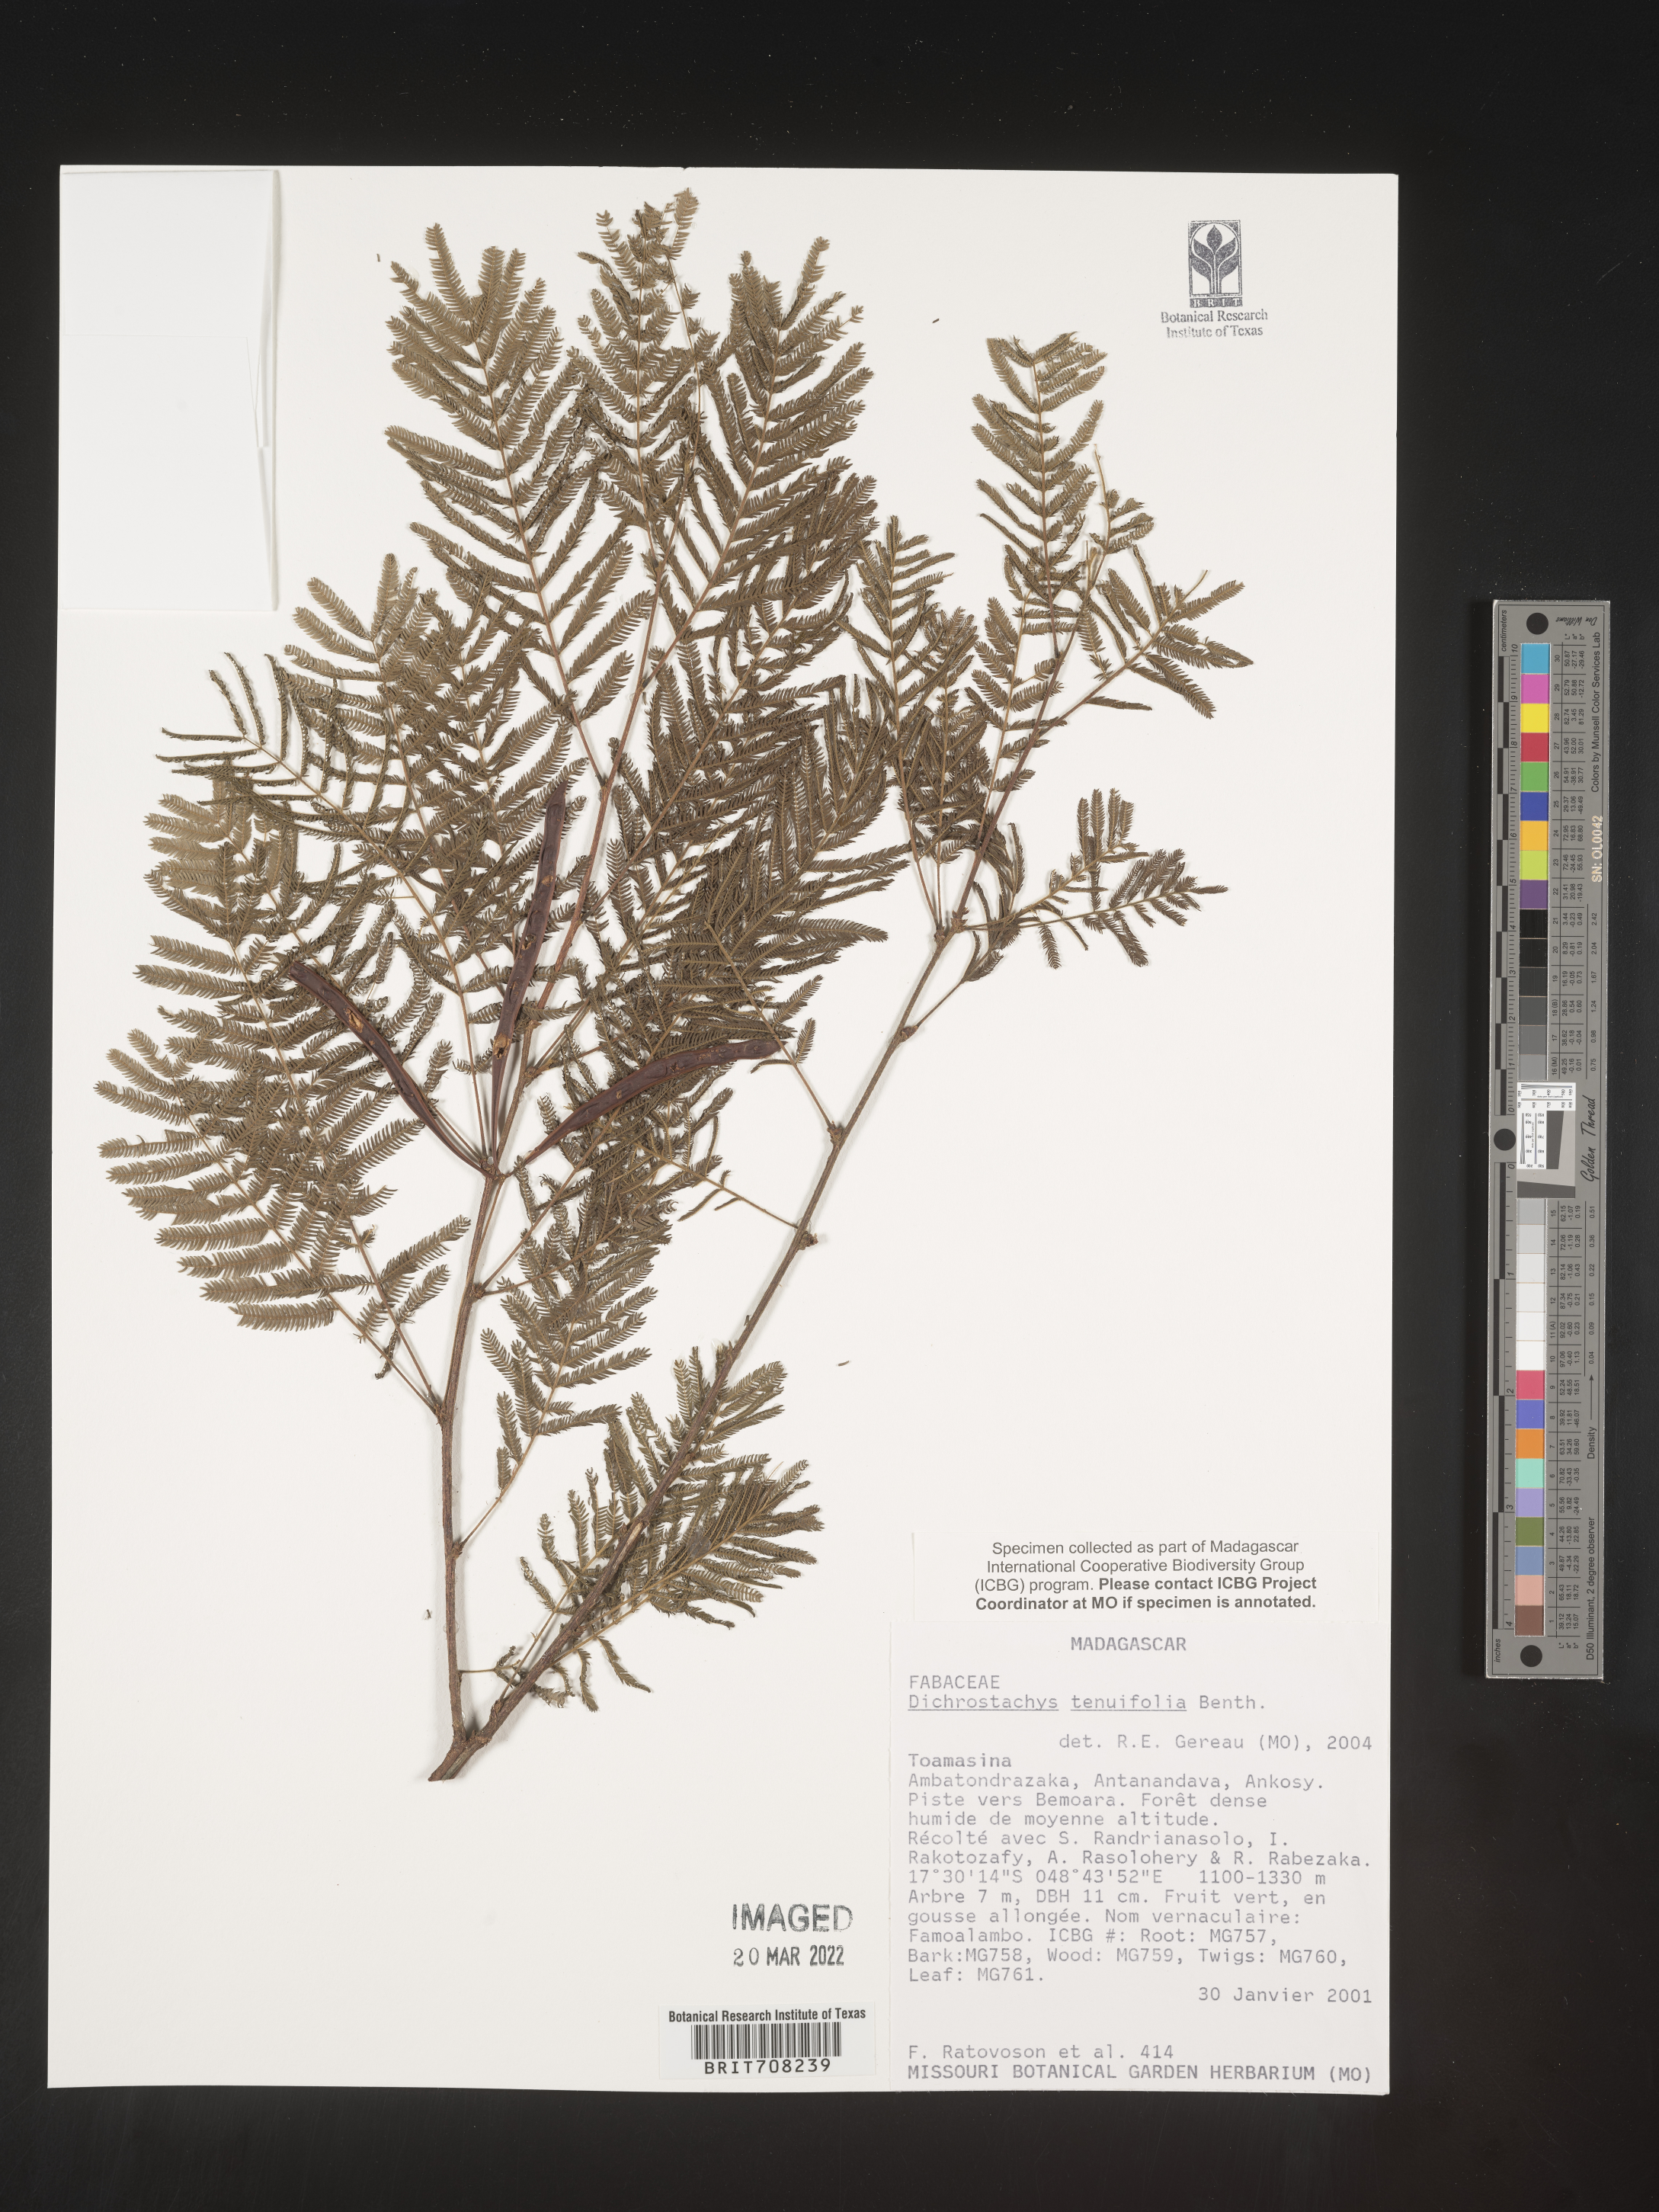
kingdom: Plantae
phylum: Tracheophyta
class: Magnoliopsida
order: Fabales
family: Fabaceae
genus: Dichrostachys
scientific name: Dichrostachys cinerea
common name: Sicklebush
